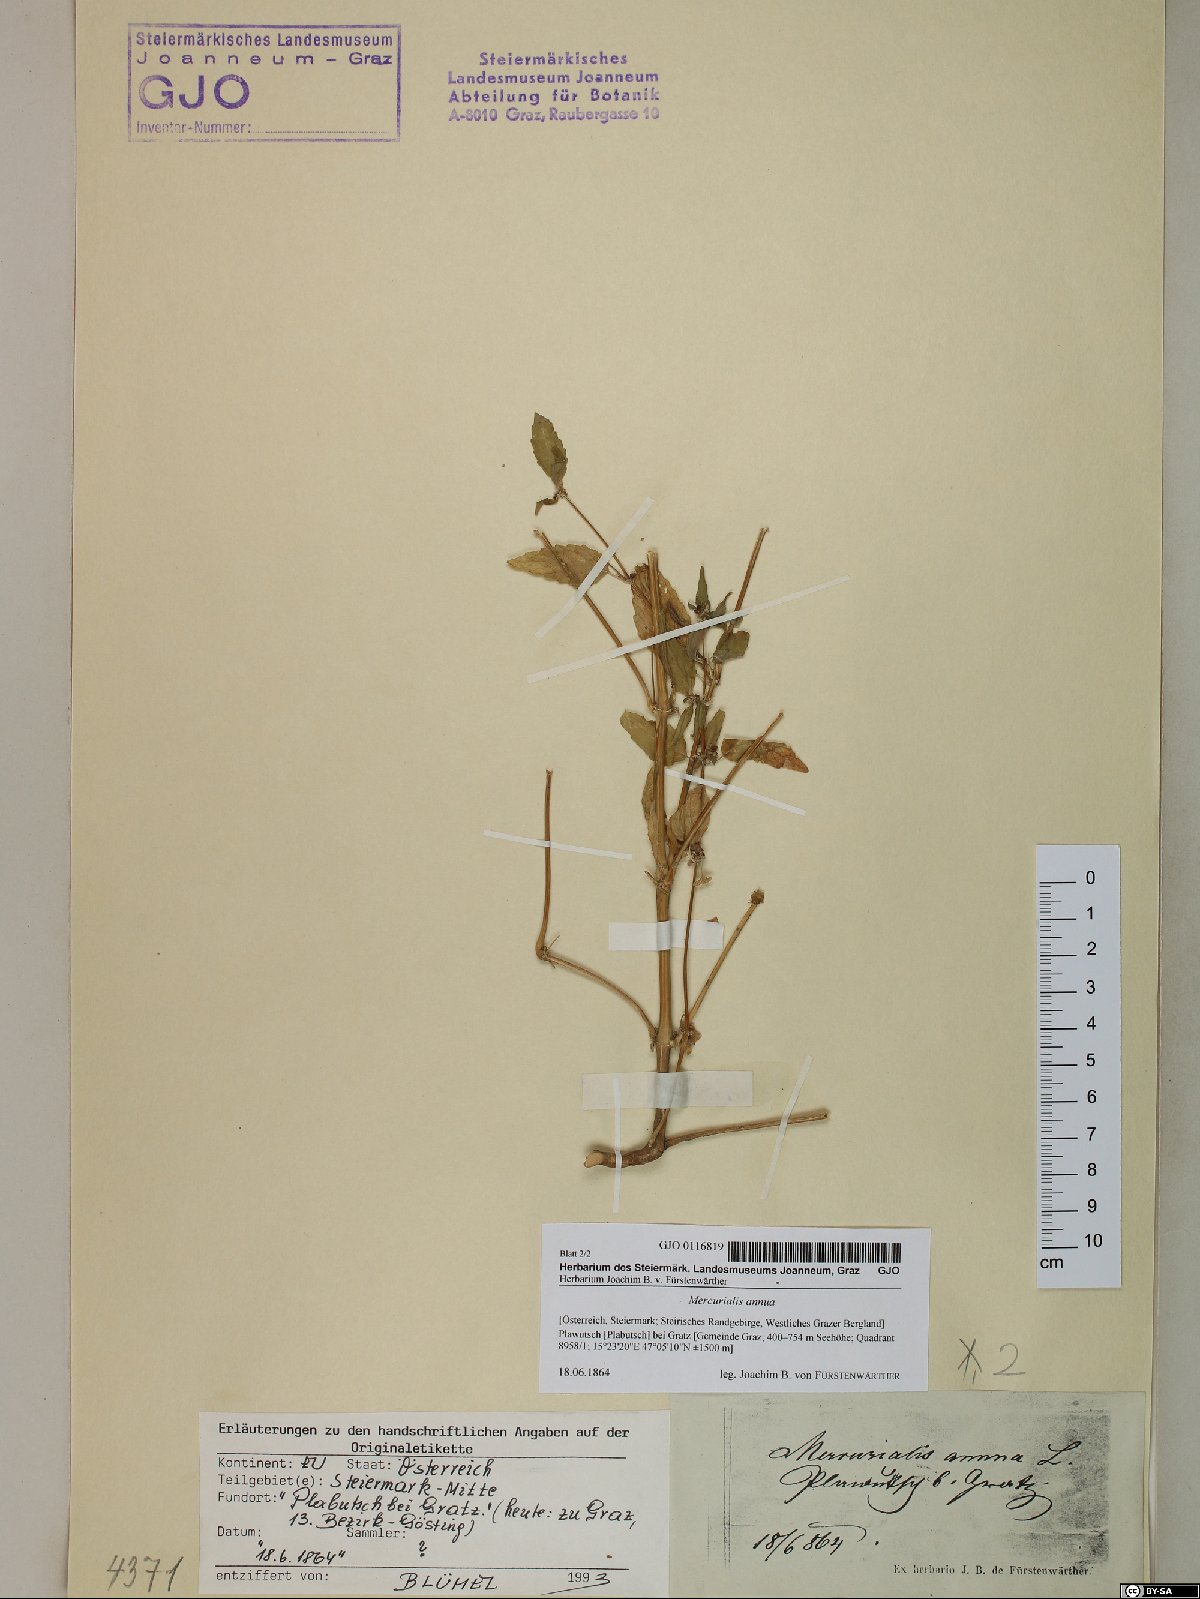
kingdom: Plantae
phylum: Tracheophyta
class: Magnoliopsida
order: Malpighiales
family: Euphorbiaceae
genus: Mercurialis
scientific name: Mercurialis annua
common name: Annual mercury
